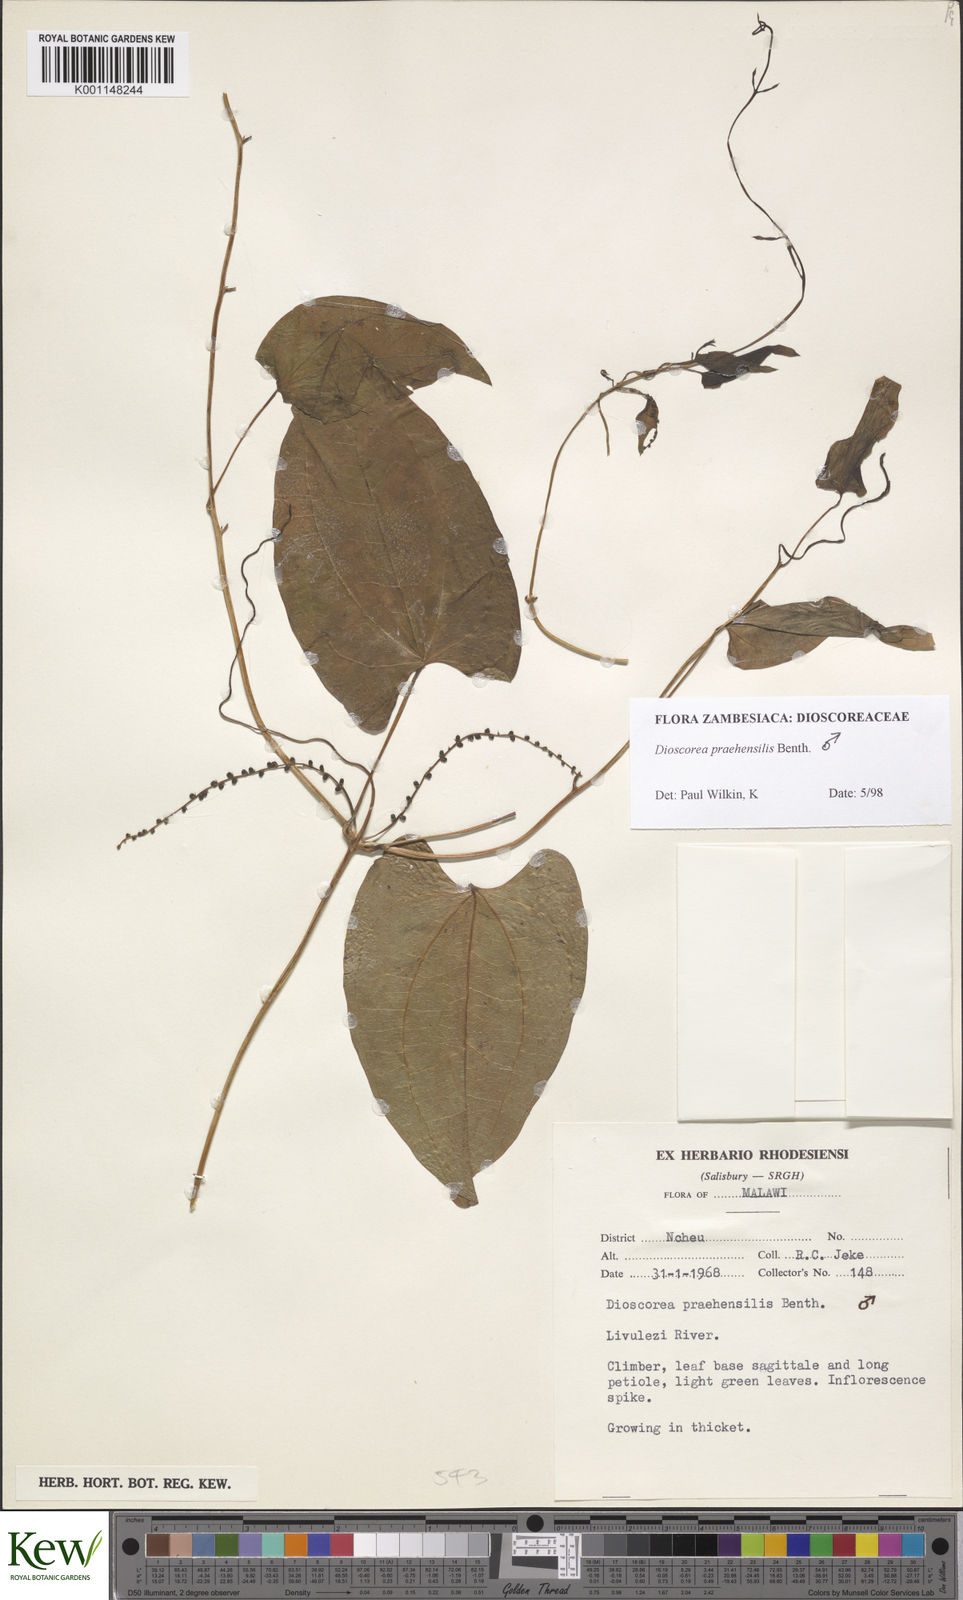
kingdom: Plantae
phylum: Tracheophyta
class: Liliopsida
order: Dioscoreales
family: Dioscoreaceae
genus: Dioscorea
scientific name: Dioscorea praehensilis
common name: Bush yam
